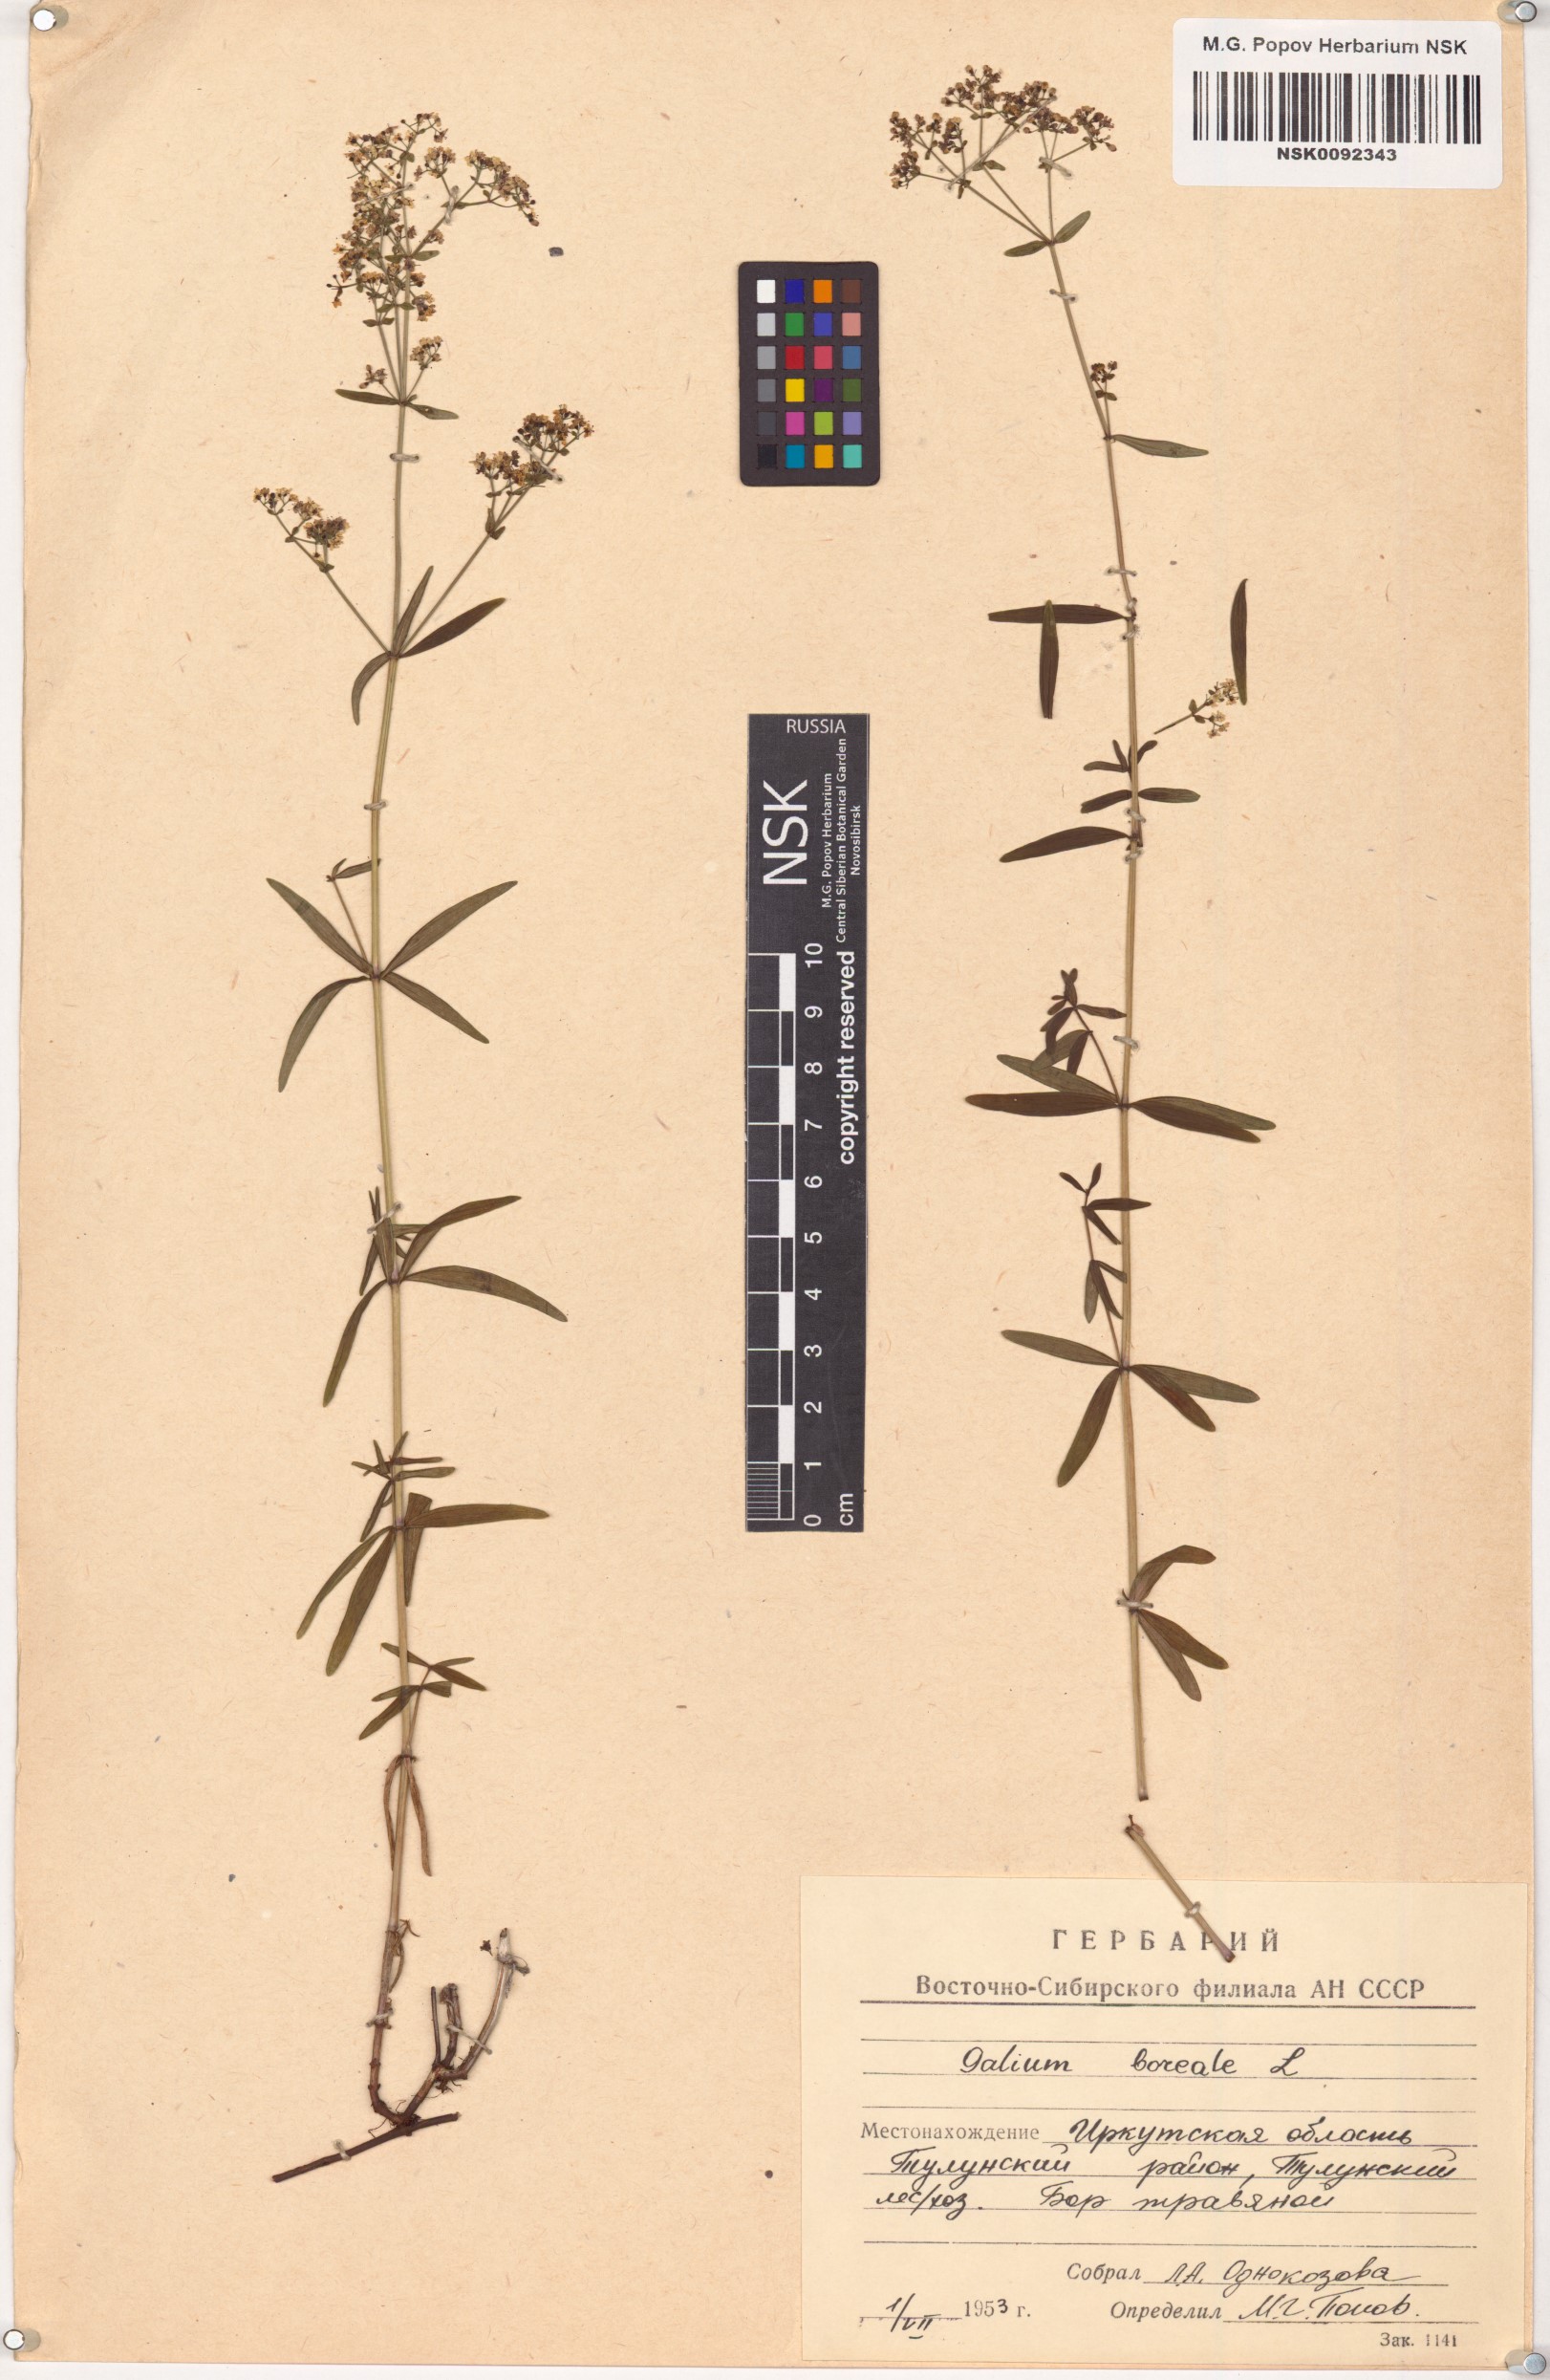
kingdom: Plantae
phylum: Tracheophyta
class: Magnoliopsida
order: Gentianales
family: Rubiaceae
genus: Galium
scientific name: Galium boreale
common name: Northern bedstraw
